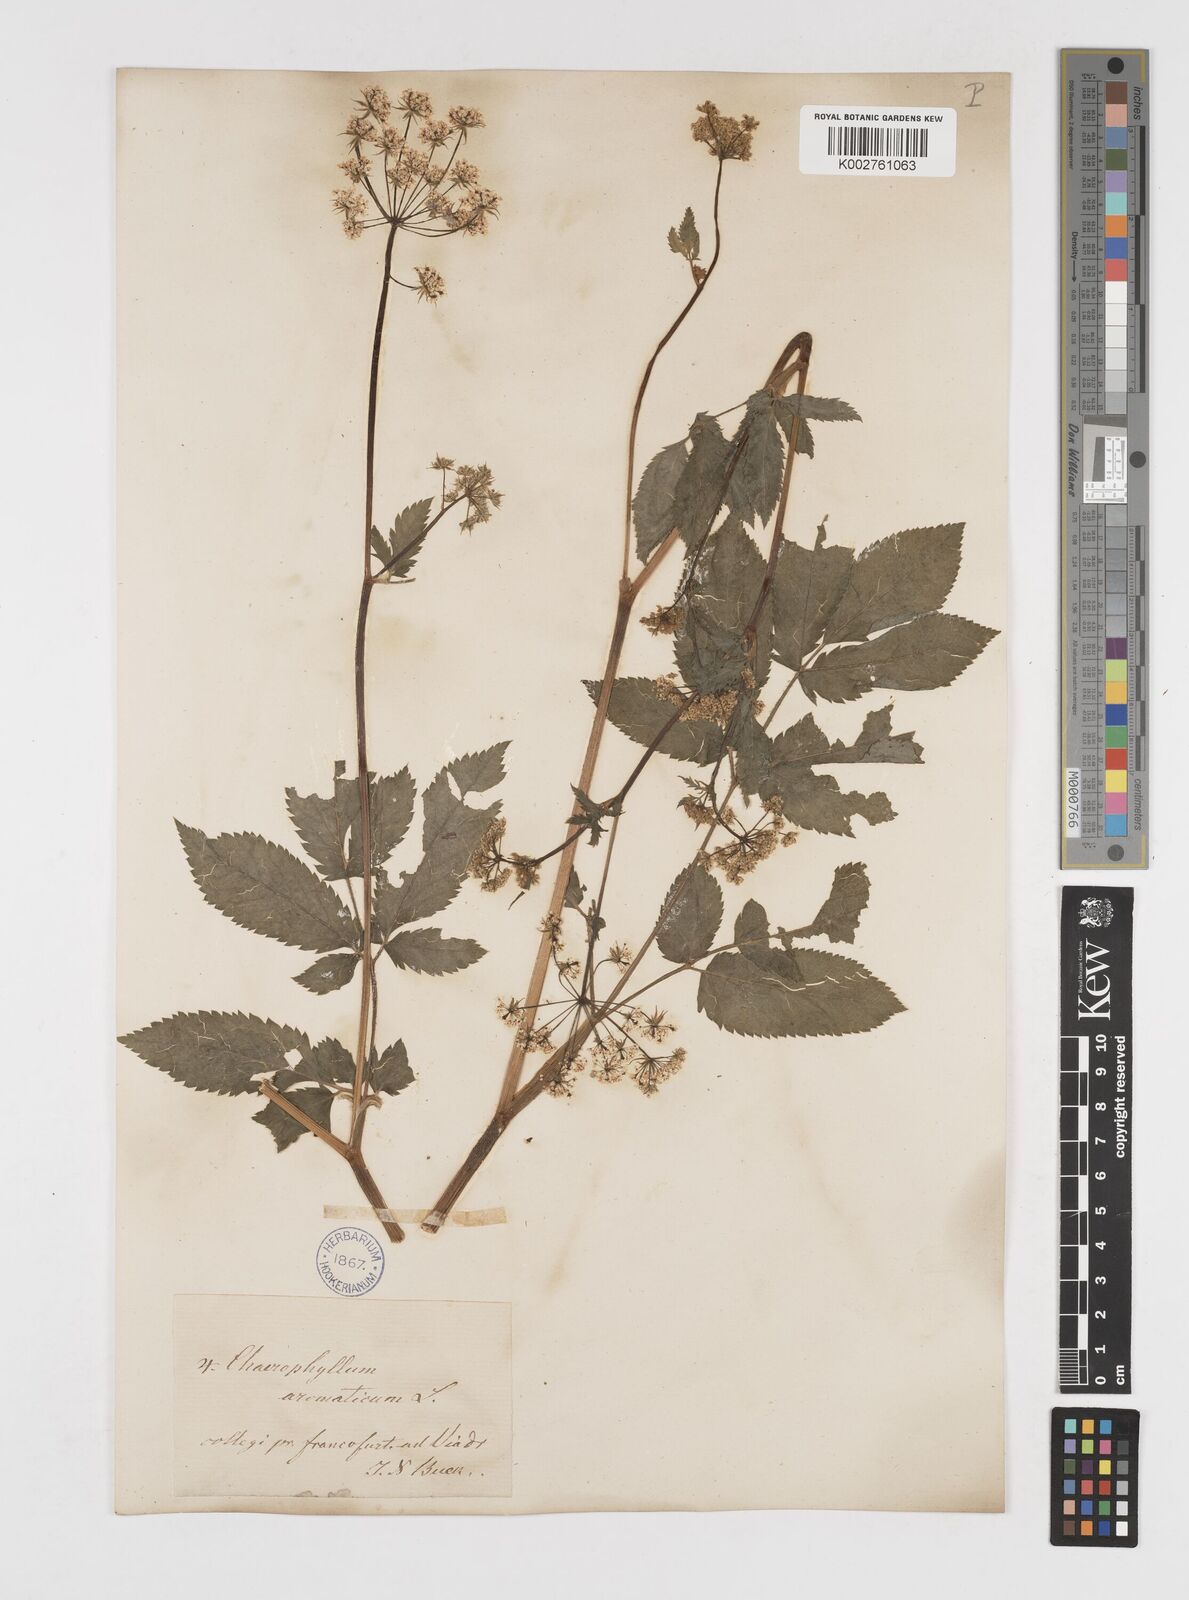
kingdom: Plantae
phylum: Tracheophyta
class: Magnoliopsida
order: Apiales
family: Apiaceae
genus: Chaerophyllum
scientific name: Chaerophyllum aromaticum
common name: Broadleaf chervil
